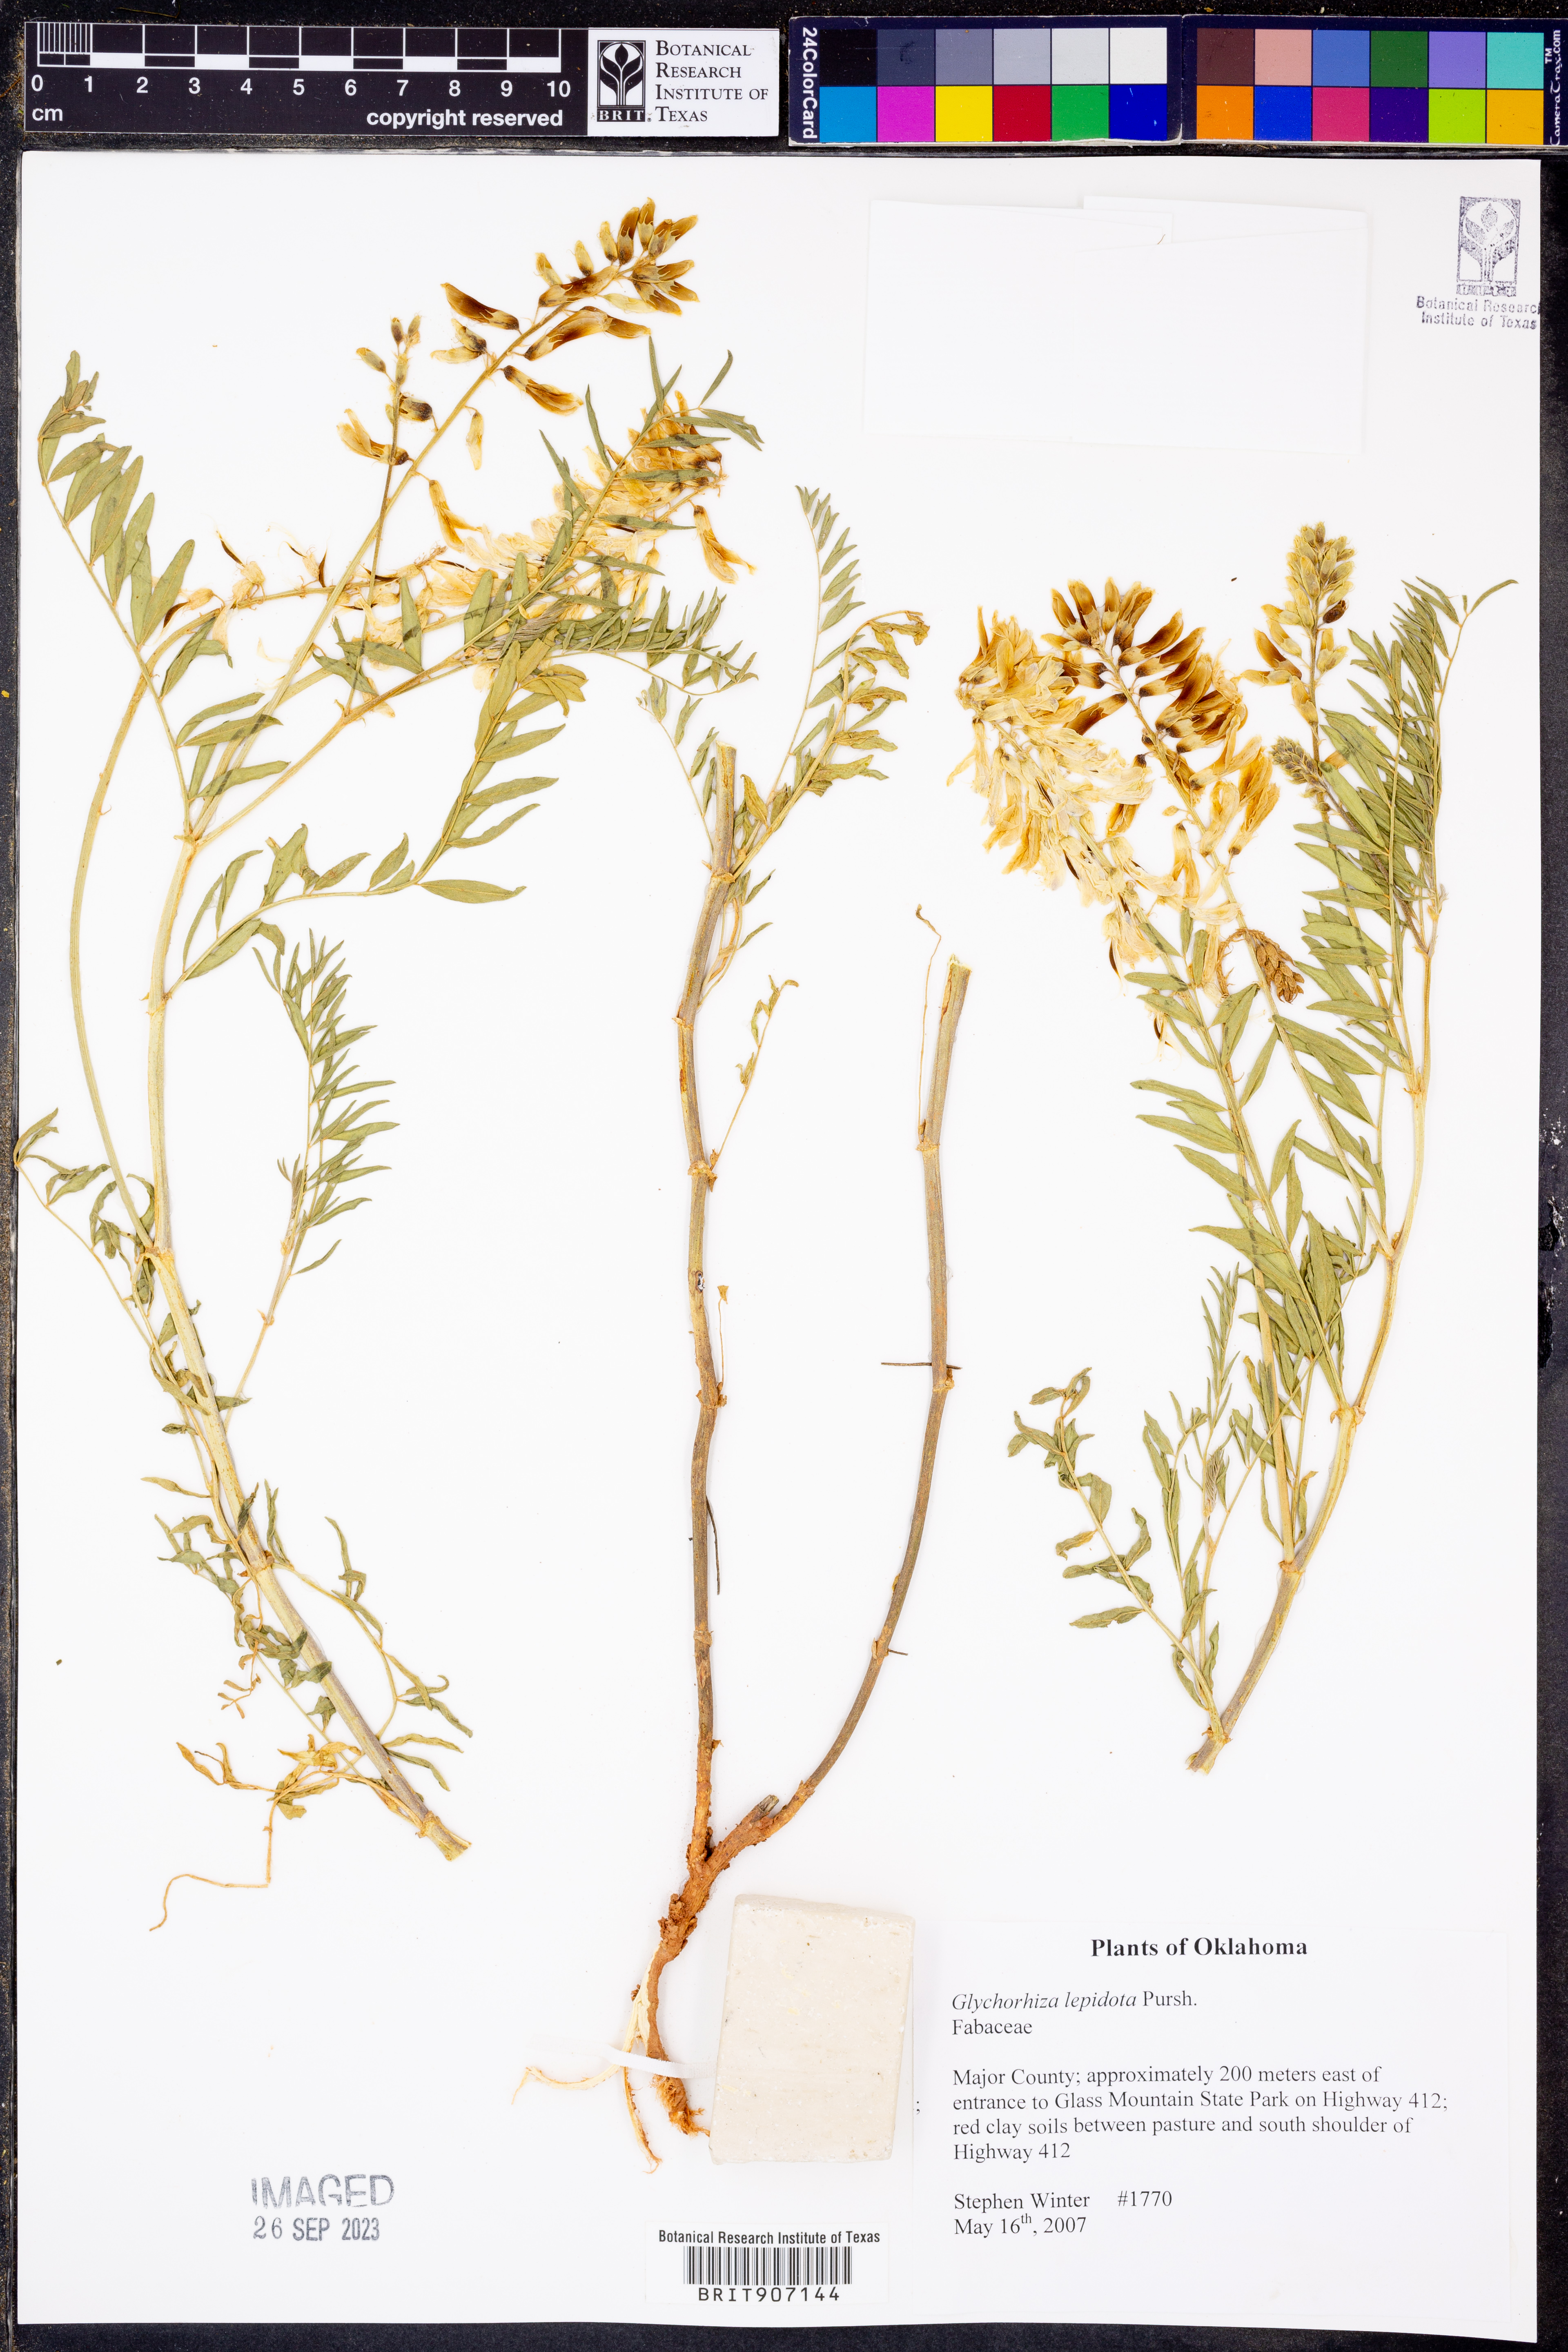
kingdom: Plantae
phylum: Tracheophyta
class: Magnoliopsida
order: Fabales
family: Fabaceae
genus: Glycyrrhiza
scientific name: Glycyrrhiza lepidota
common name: American liquorice
